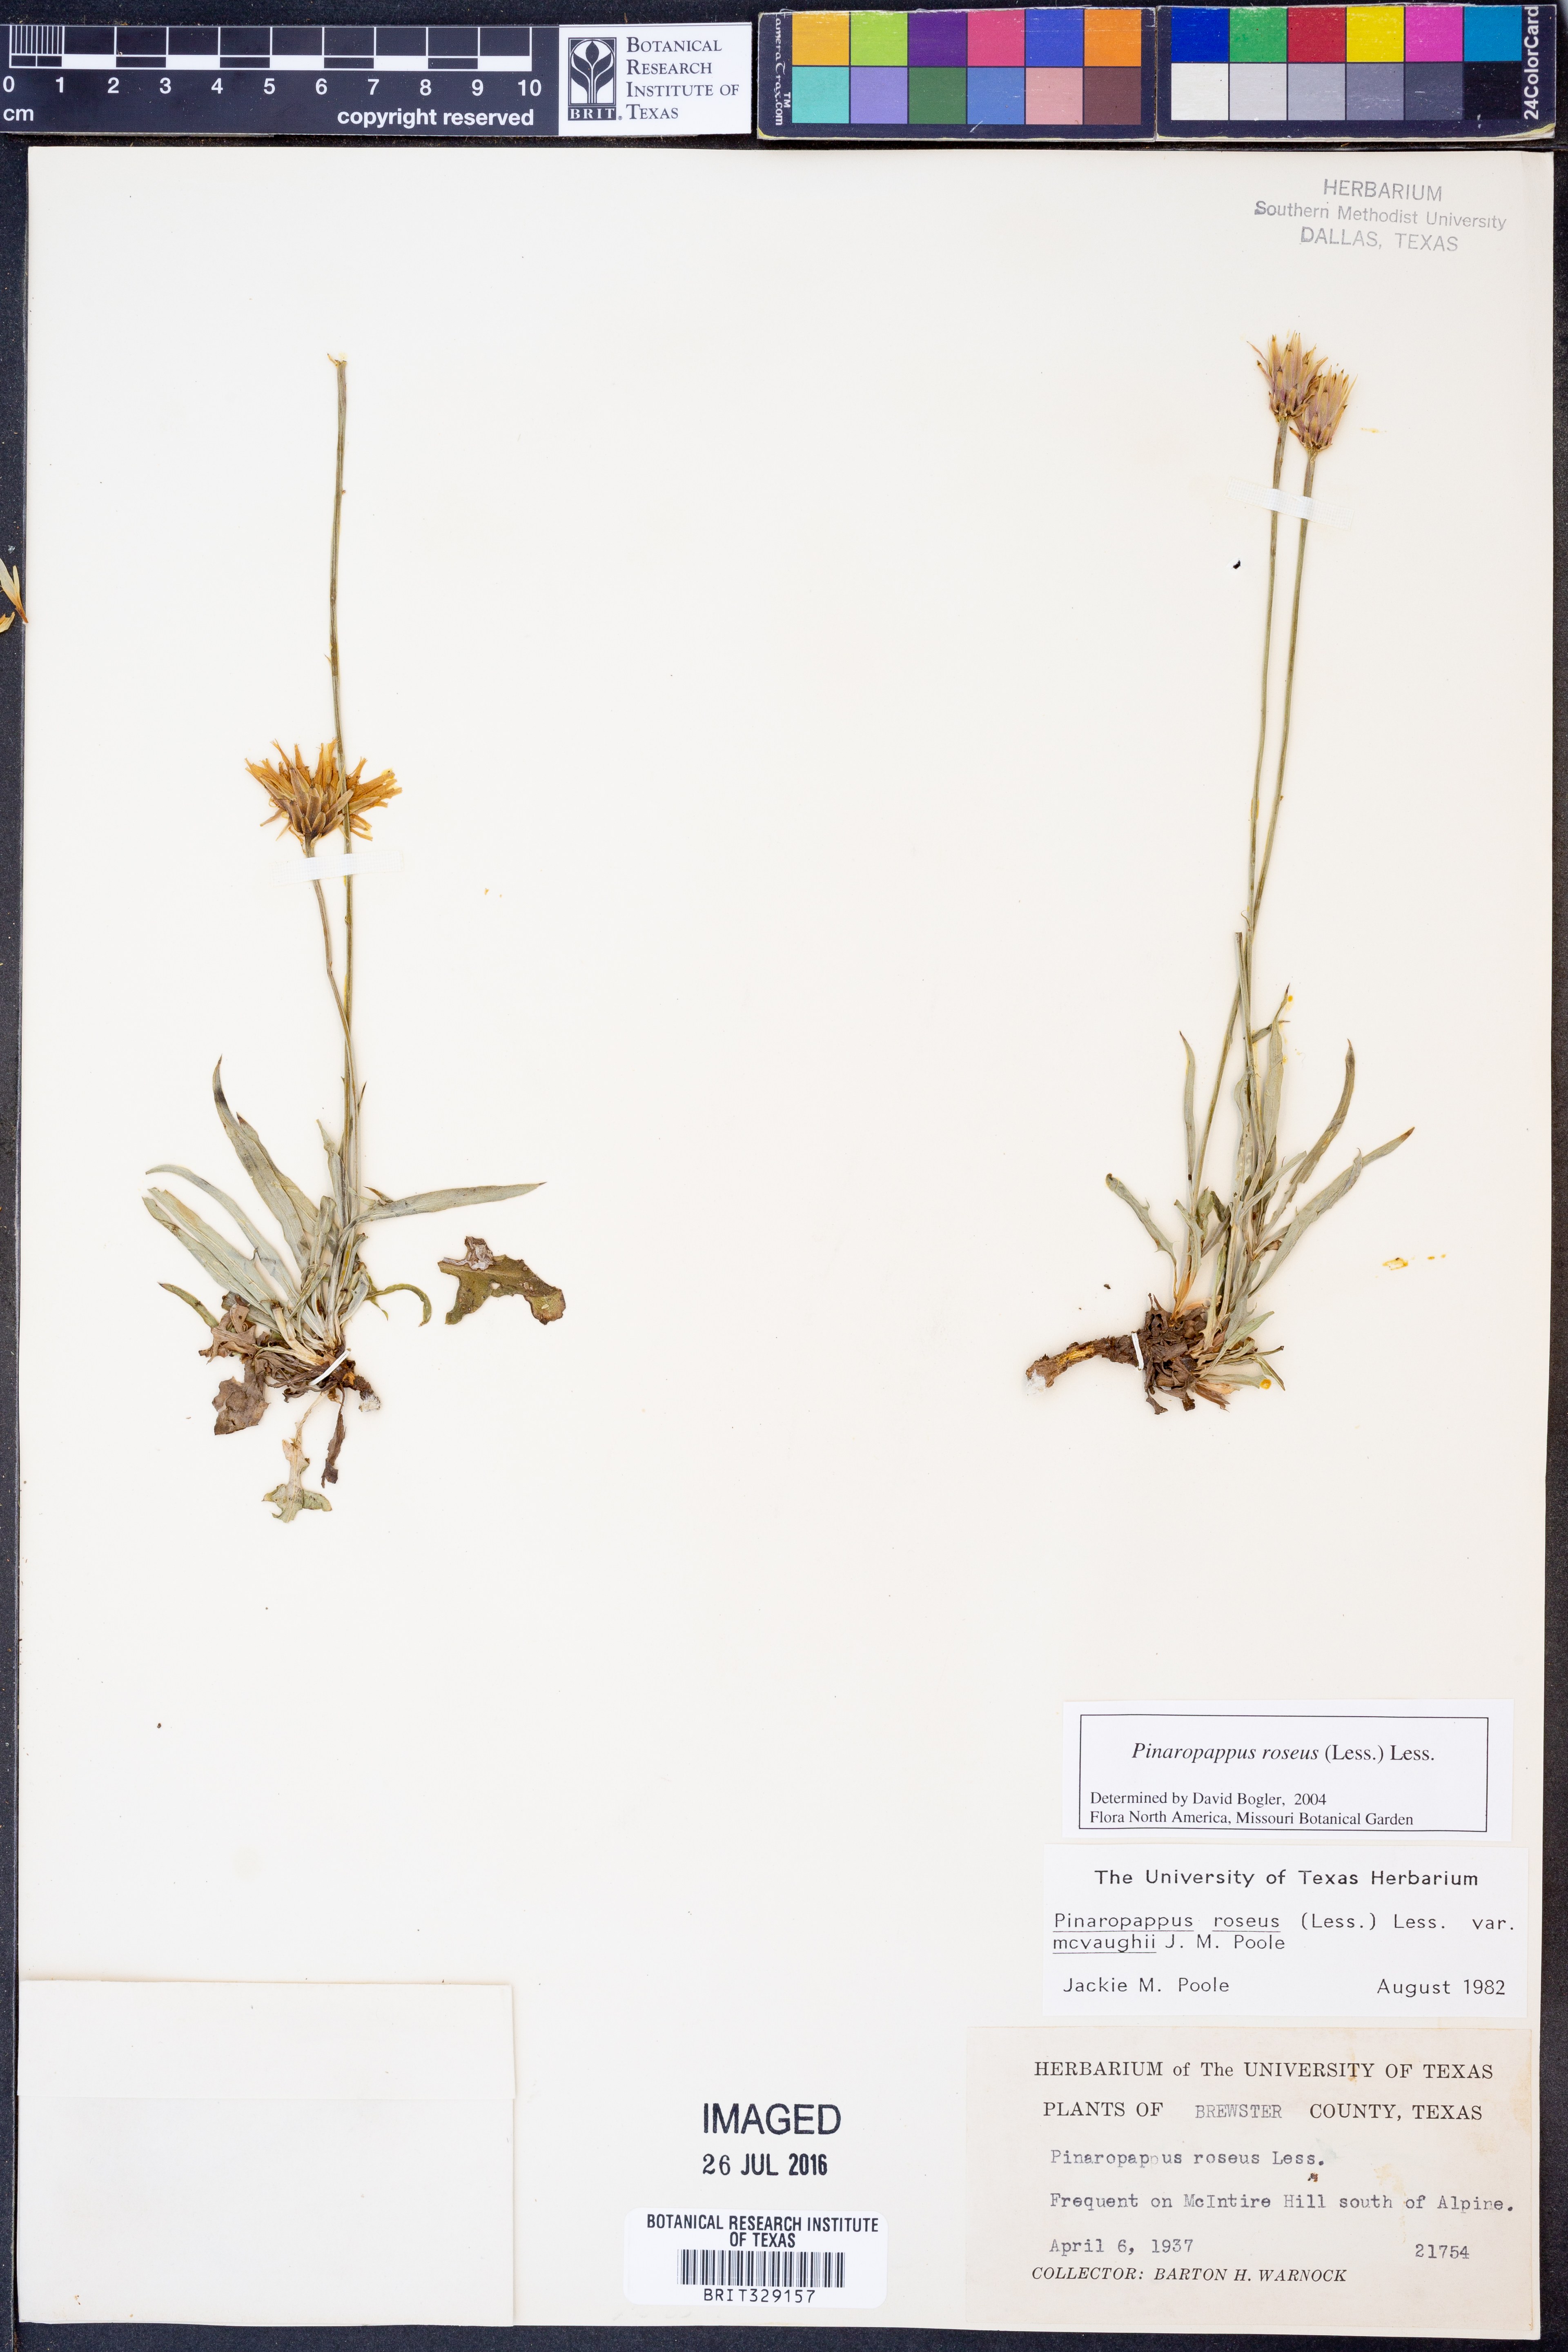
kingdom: Plantae
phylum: Tracheophyta
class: Magnoliopsida
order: Asterales
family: Asteraceae
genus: Pinaropappus
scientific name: Pinaropappus roseus
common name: Rock-lettuce
